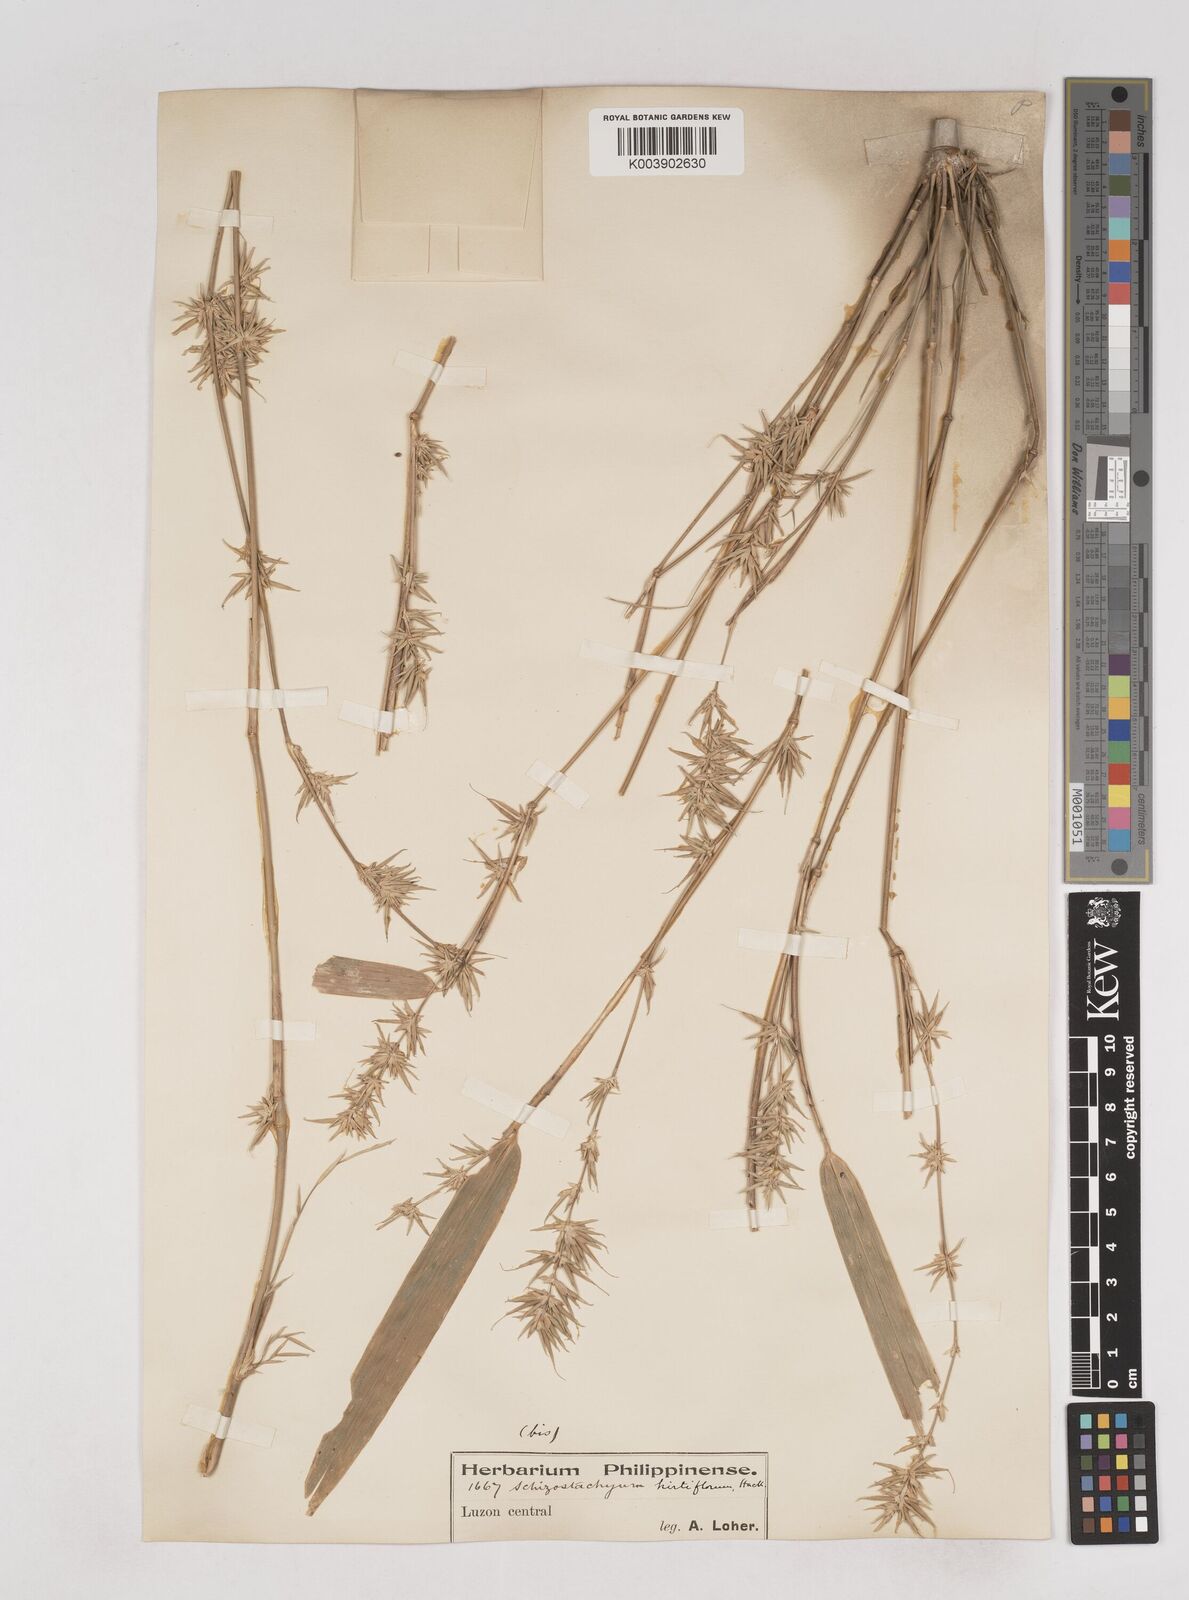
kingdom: Plantae
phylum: Tracheophyta
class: Liliopsida
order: Poales
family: Poaceae
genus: Schizostachyum
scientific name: Schizostachyum lima
